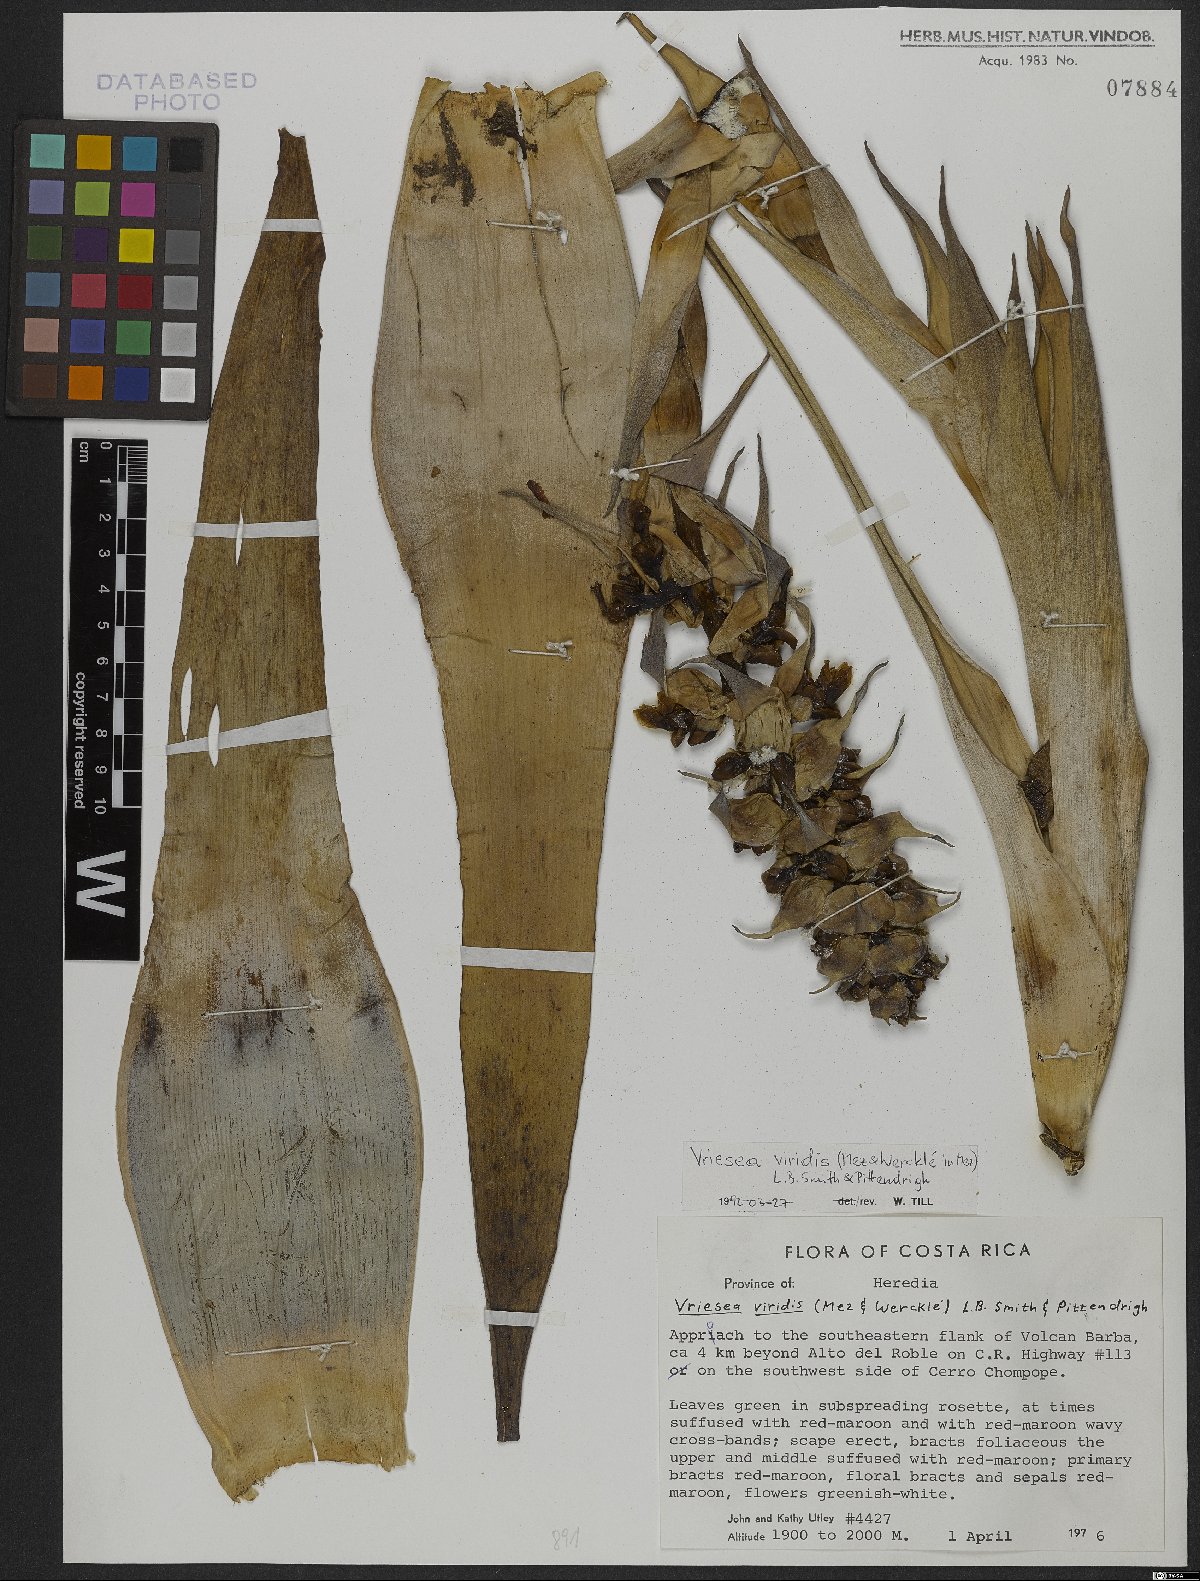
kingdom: Plantae
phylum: Tracheophyta
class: Liliopsida
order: Poales
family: Bromeliaceae
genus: Werauhia
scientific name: Werauhia viridis
